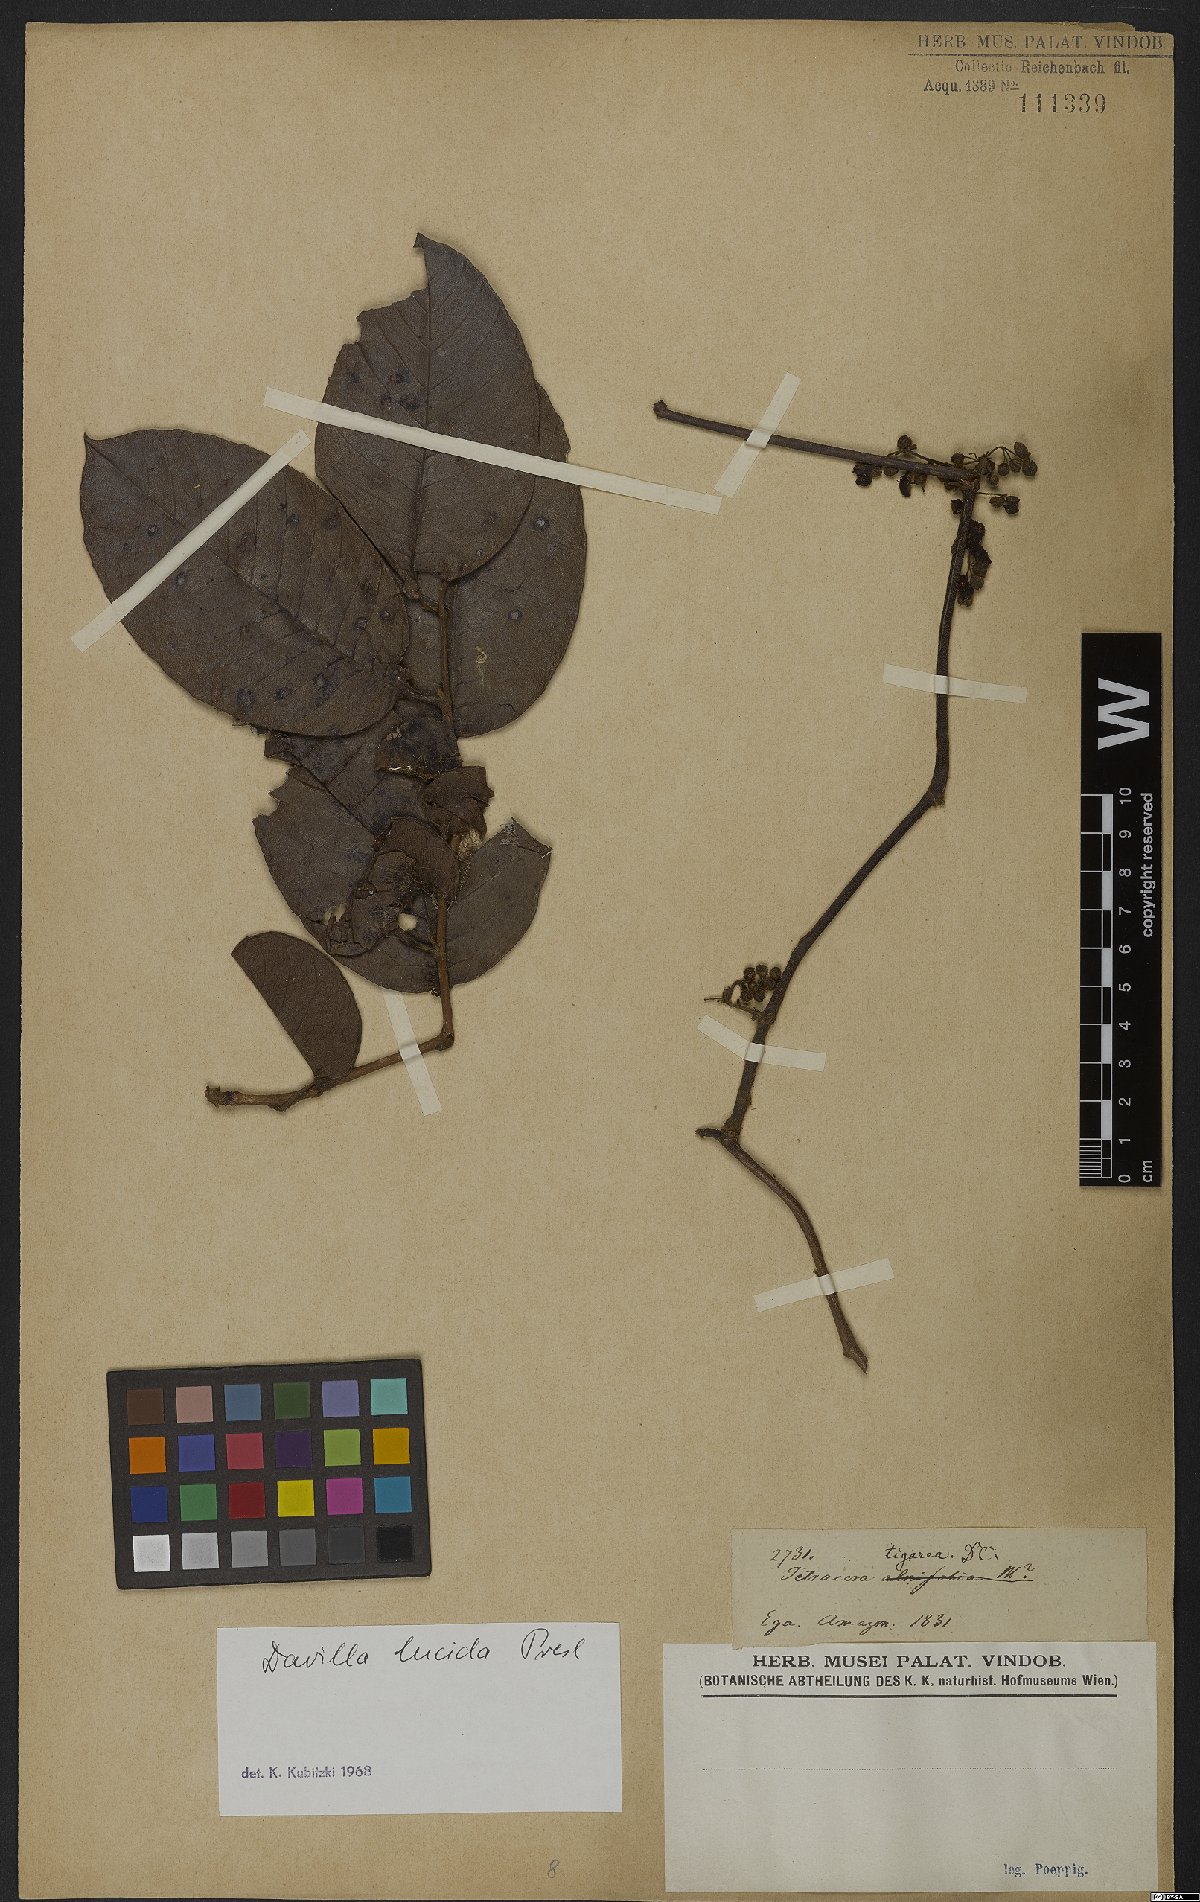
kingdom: Plantae
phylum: Tracheophyta
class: Magnoliopsida
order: Dilleniales
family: Dilleniaceae
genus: Davilla
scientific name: Davilla kunthii
